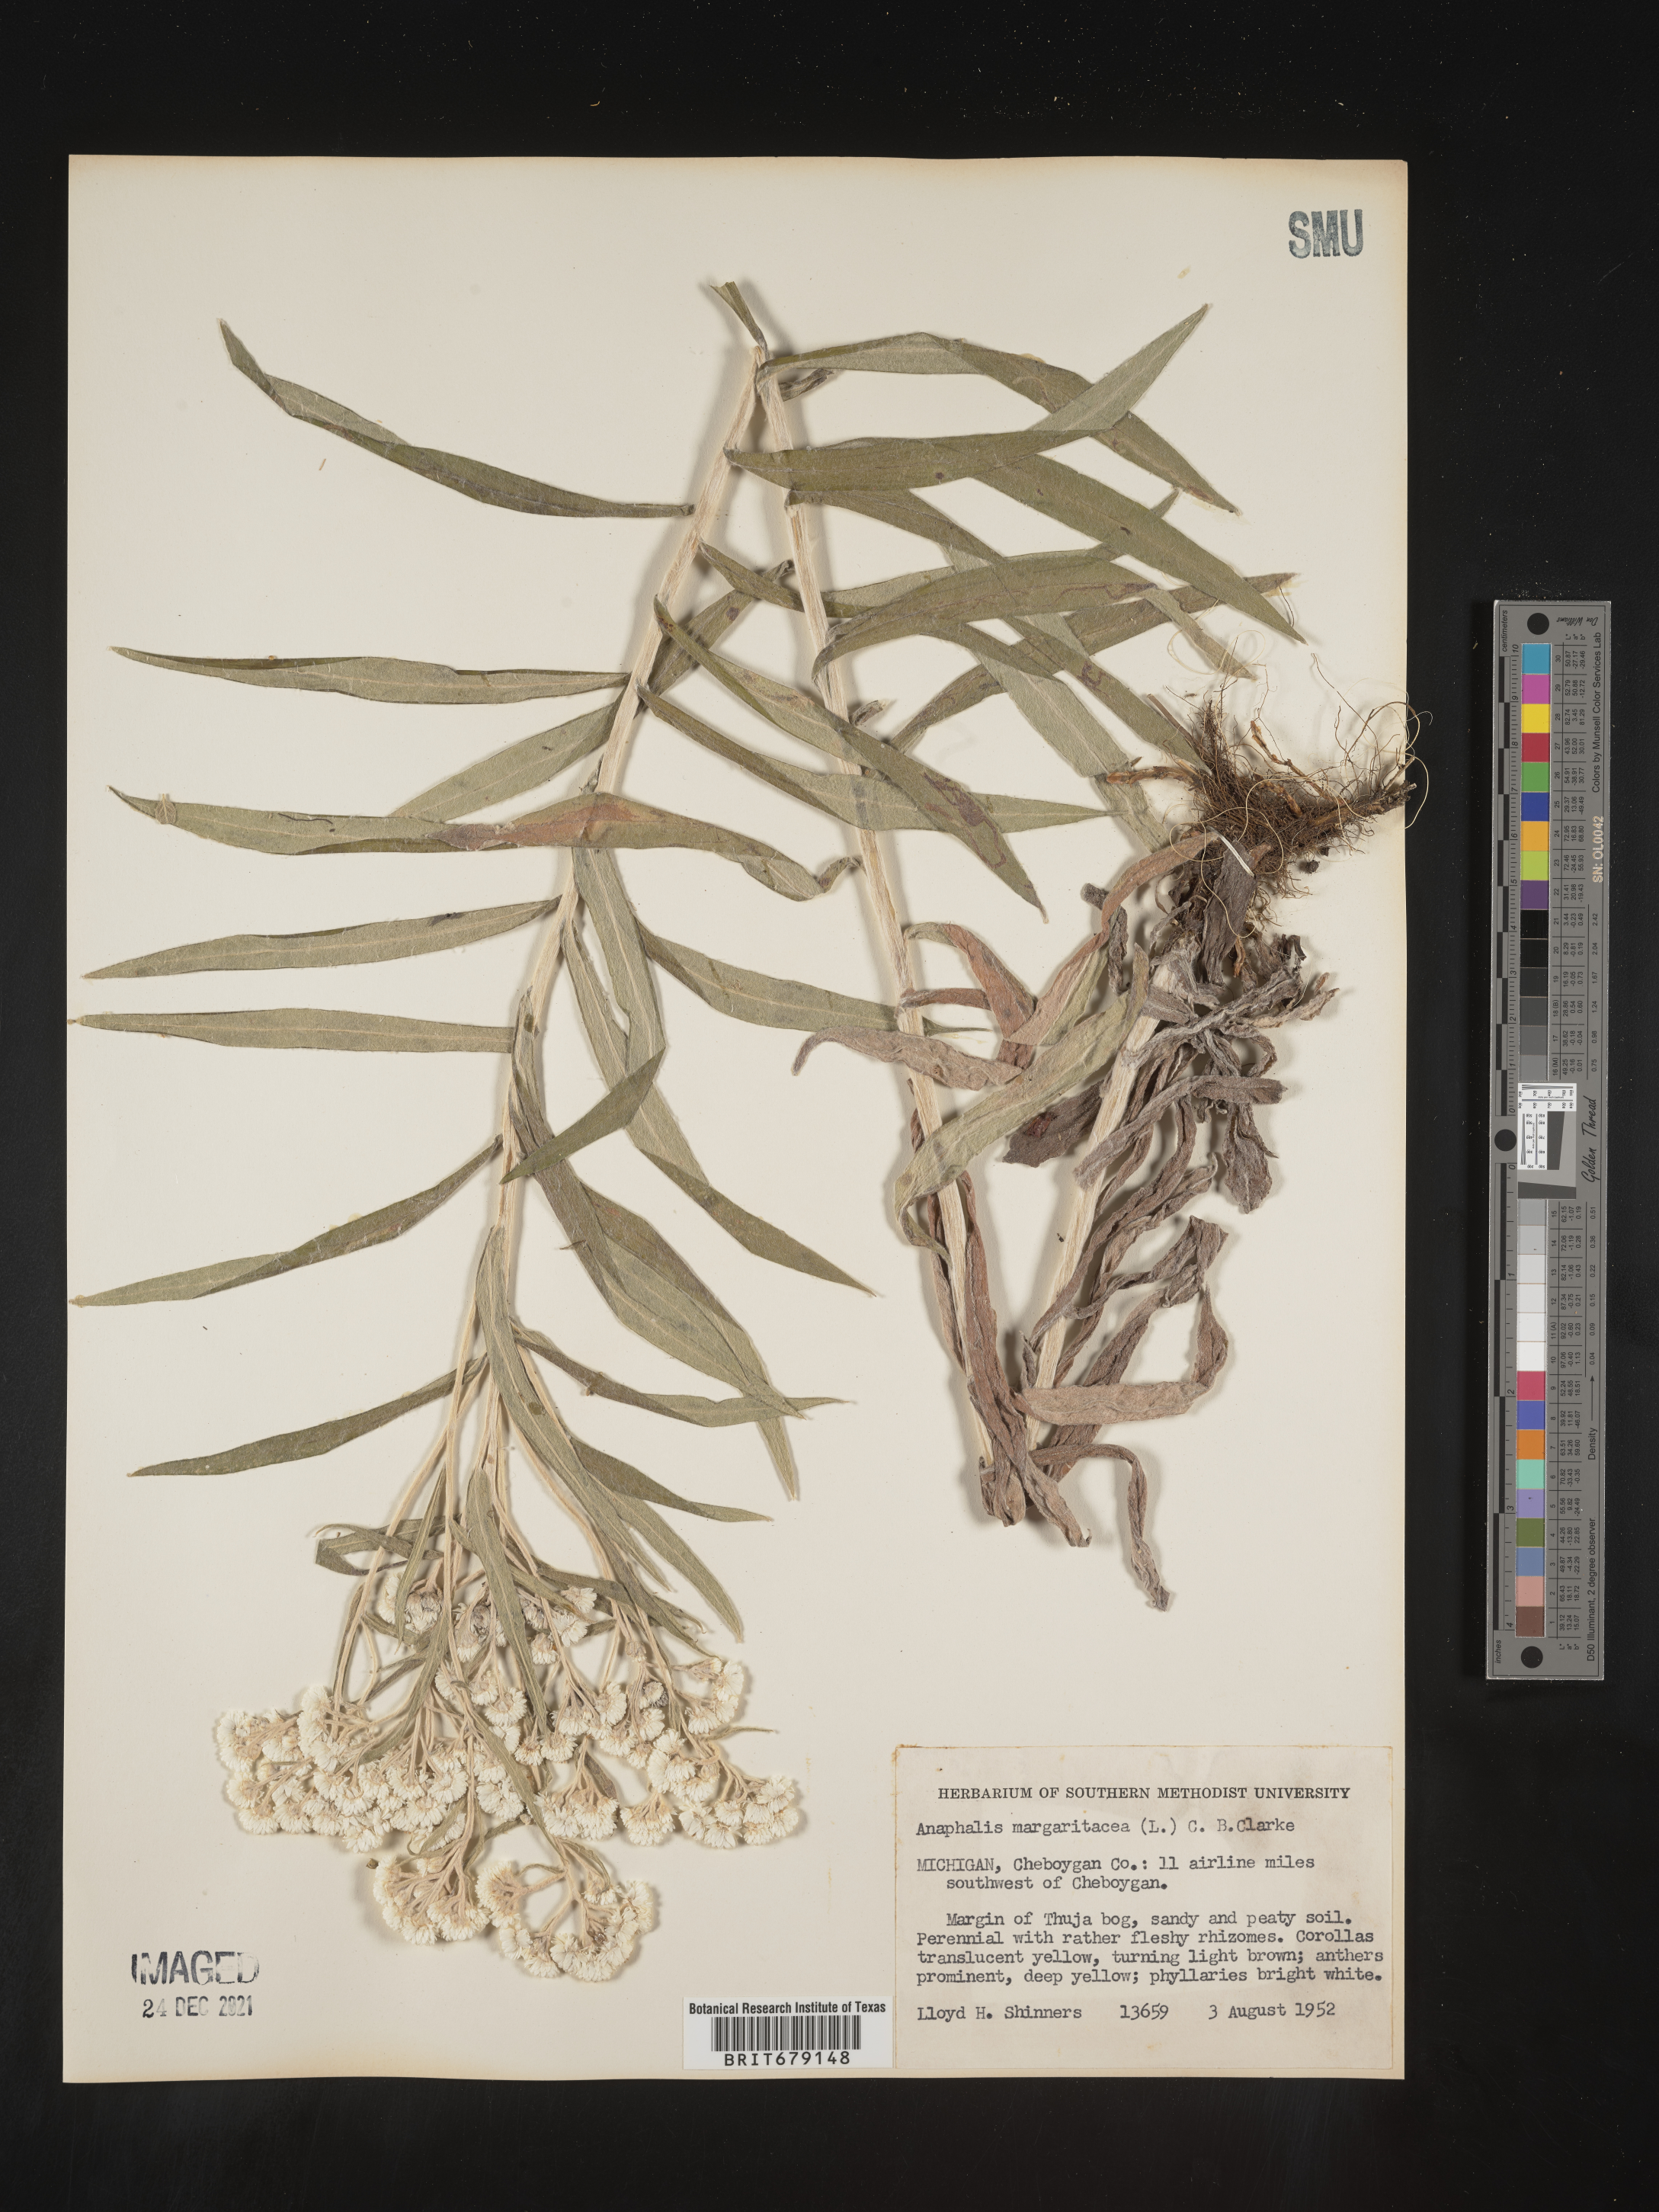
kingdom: Plantae
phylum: Tracheophyta
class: Magnoliopsida
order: Asterales
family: Asteraceae
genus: Anaphalis
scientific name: Anaphalis margaritacea
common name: Pearly everlasting
